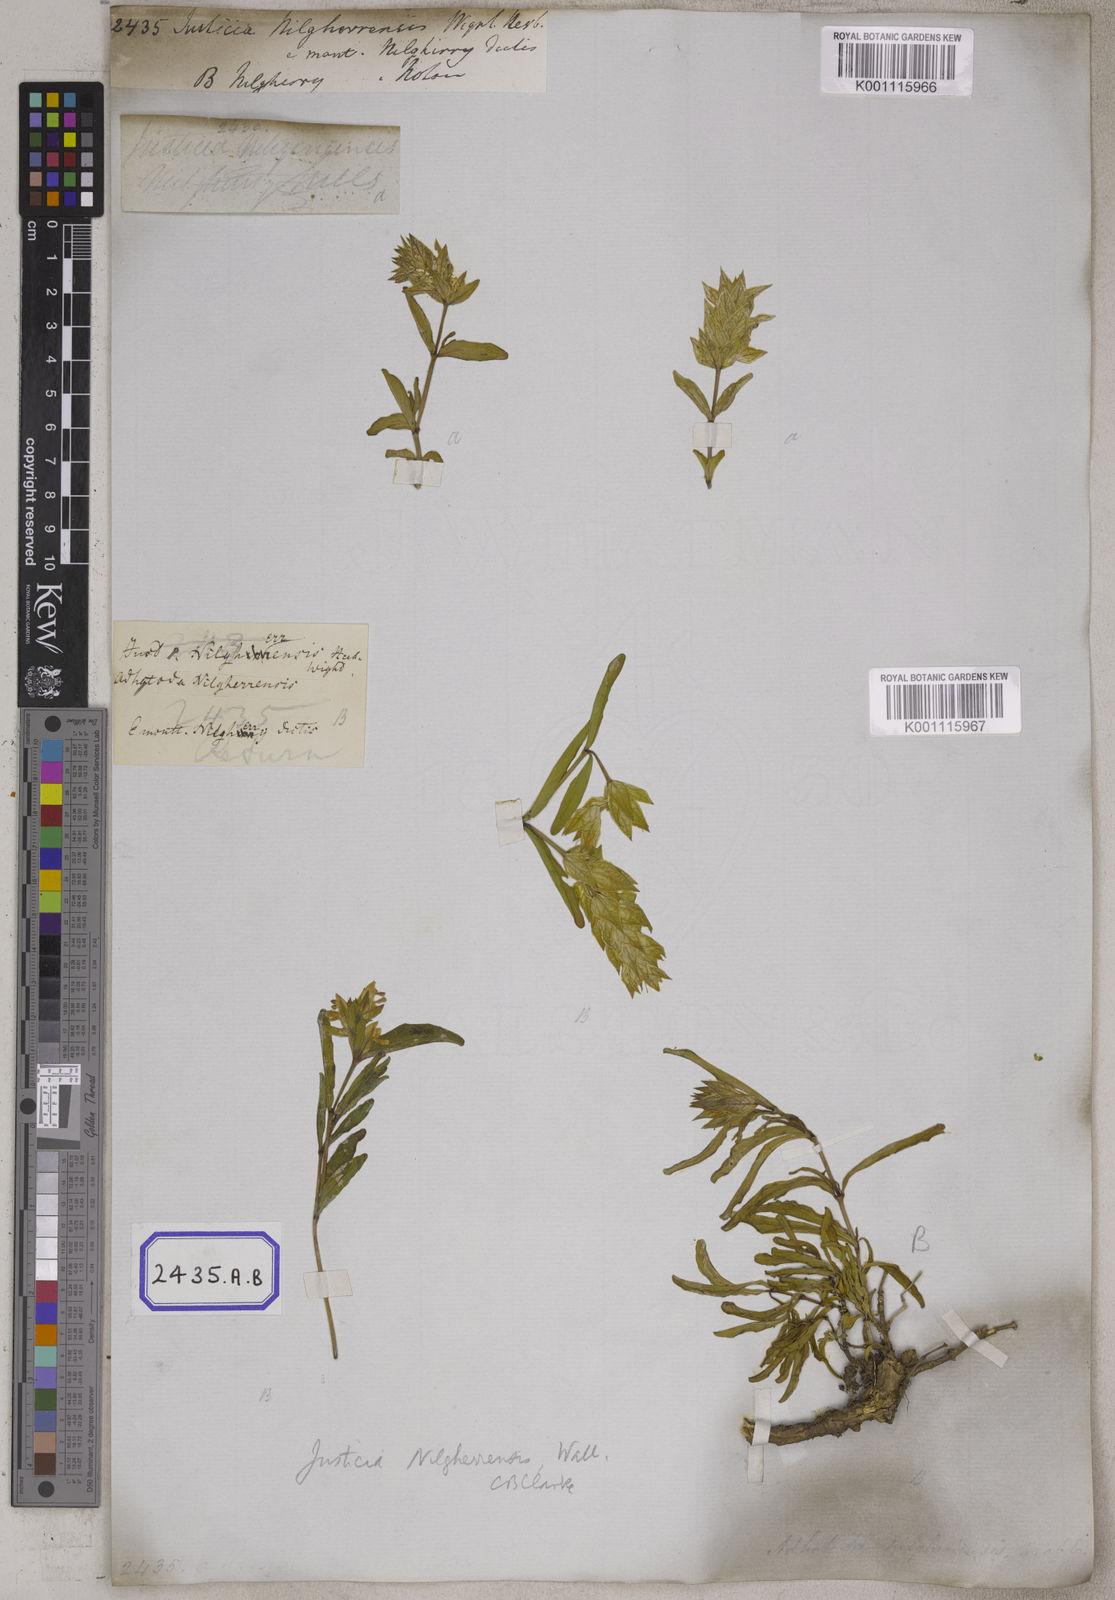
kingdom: Plantae
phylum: Tracheophyta
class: Magnoliopsida
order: Lamiales
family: Acanthaceae
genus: Justicia
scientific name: Justicia
